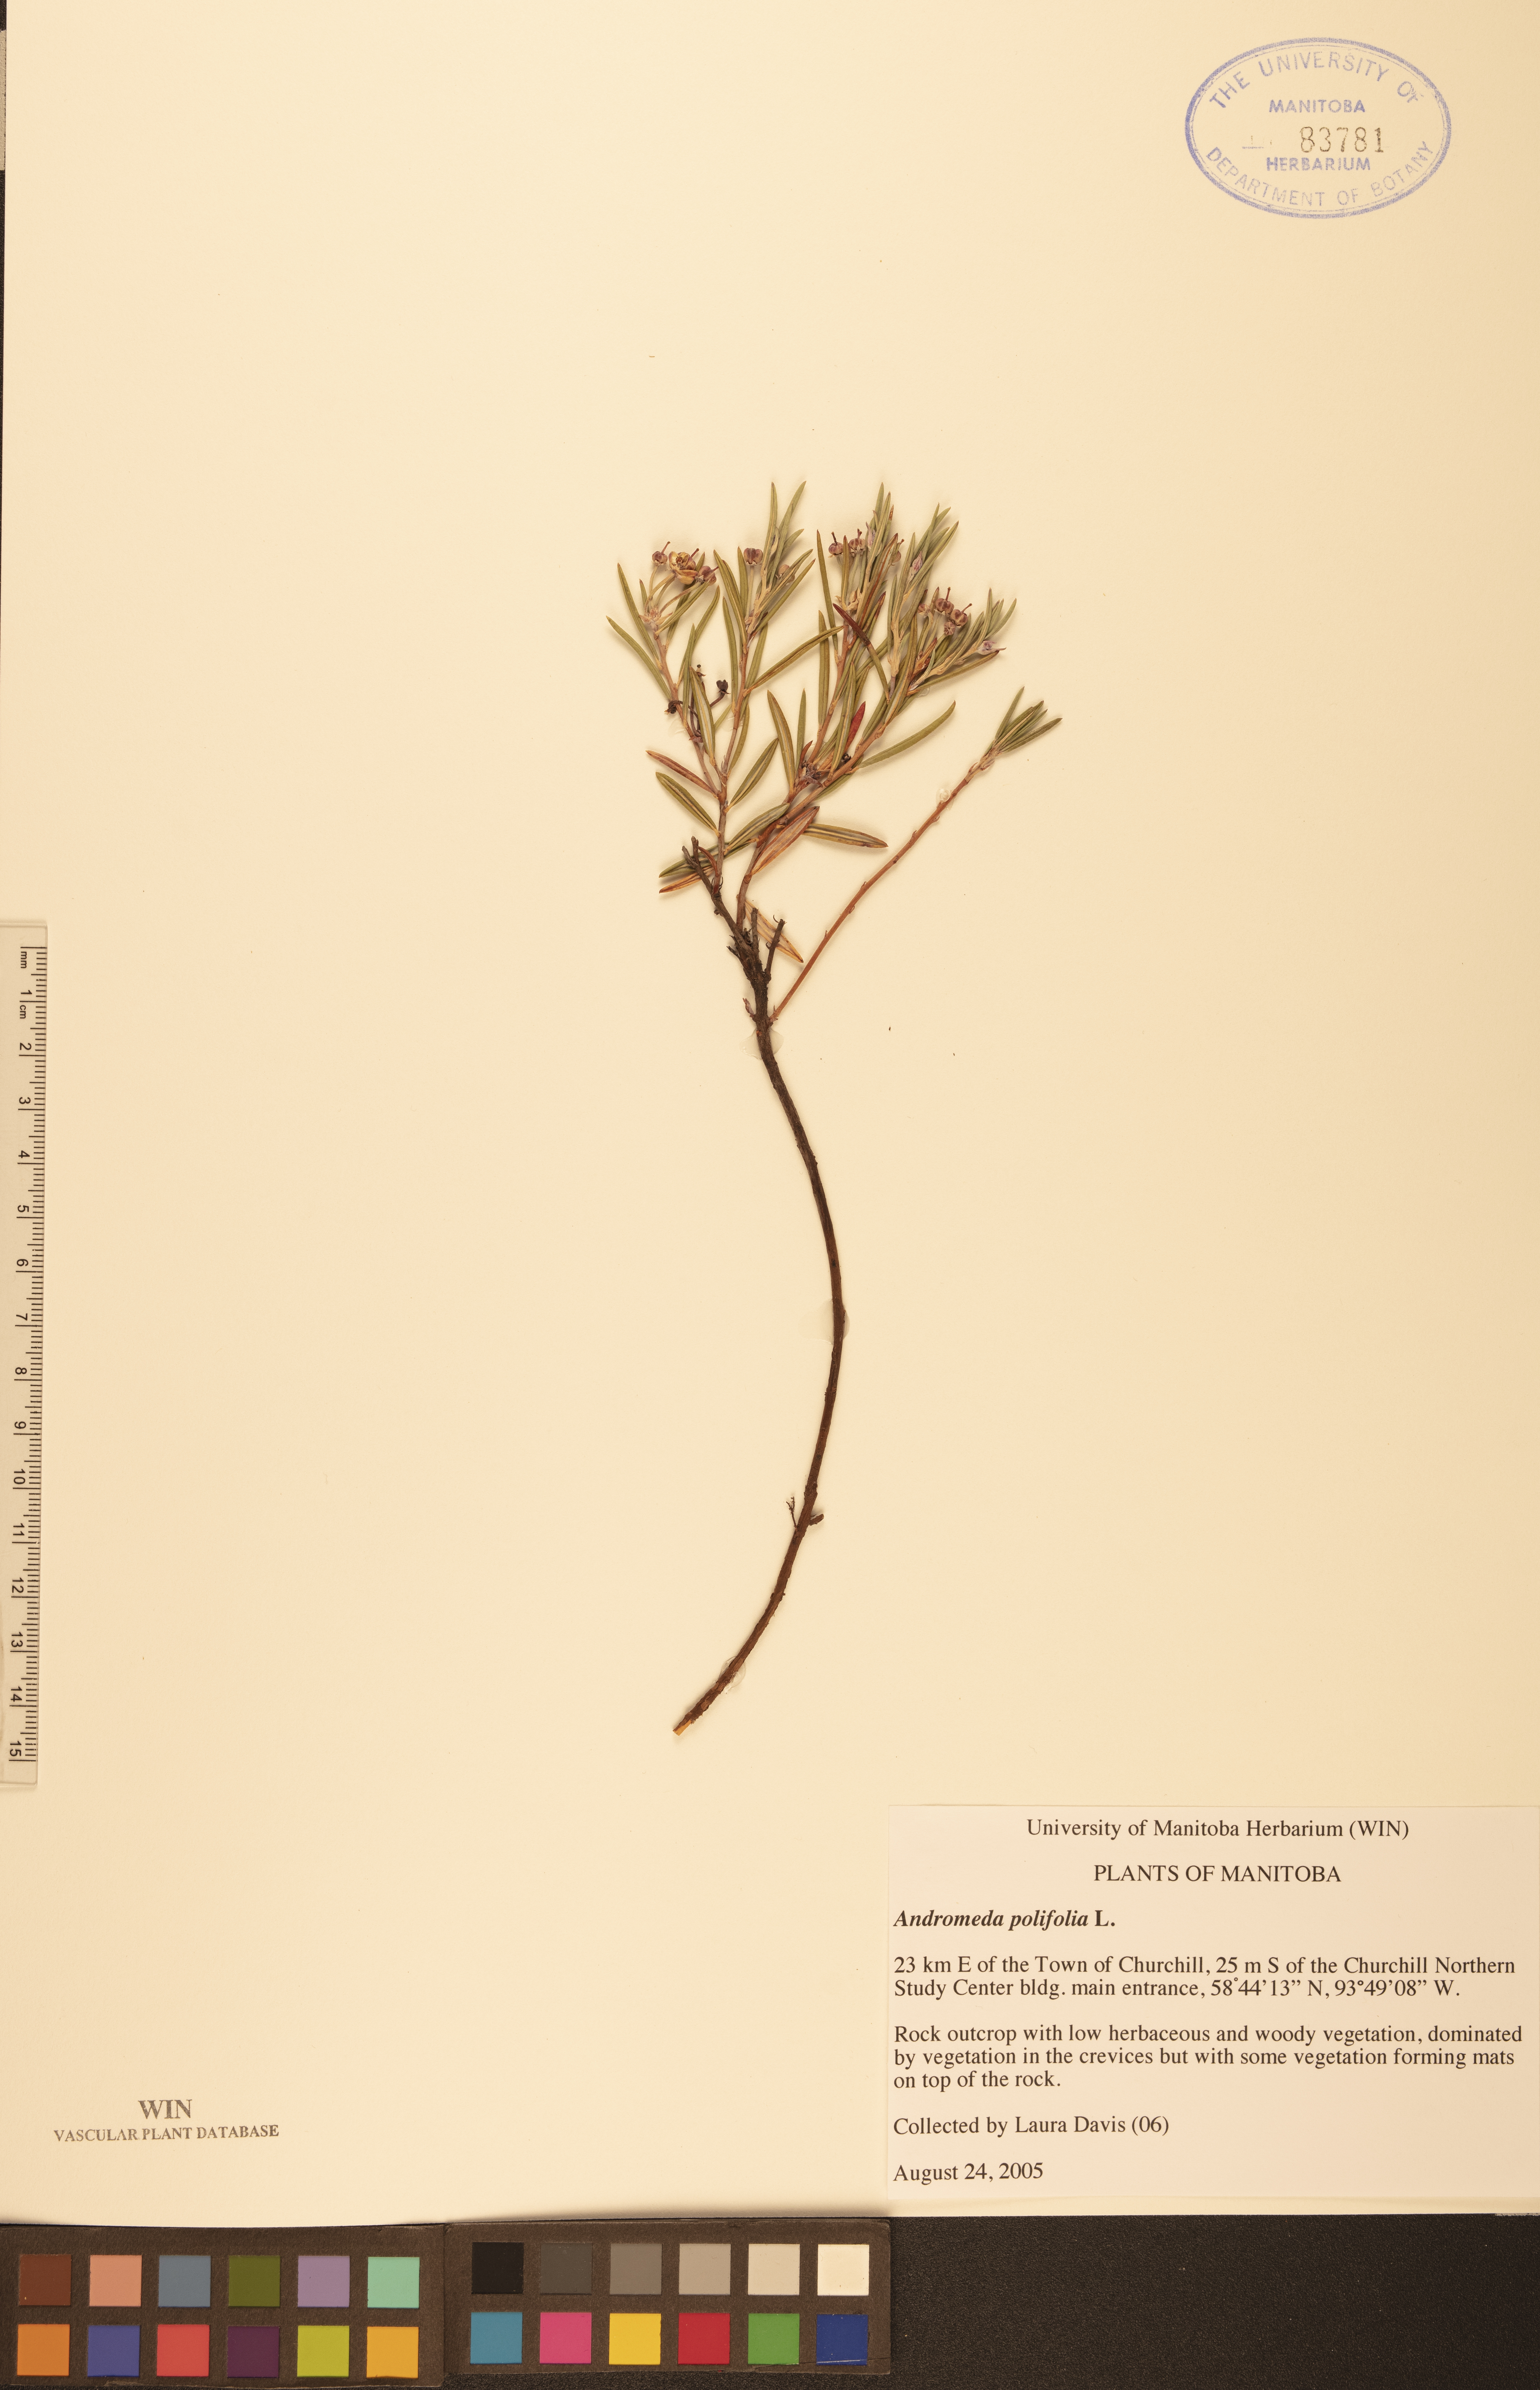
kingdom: Plantae
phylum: Tracheophyta
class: Magnoliopsida
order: Ericales
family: Ericaceae
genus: Andromeda
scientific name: Andromeda polifolia
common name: Bog-rosemary
